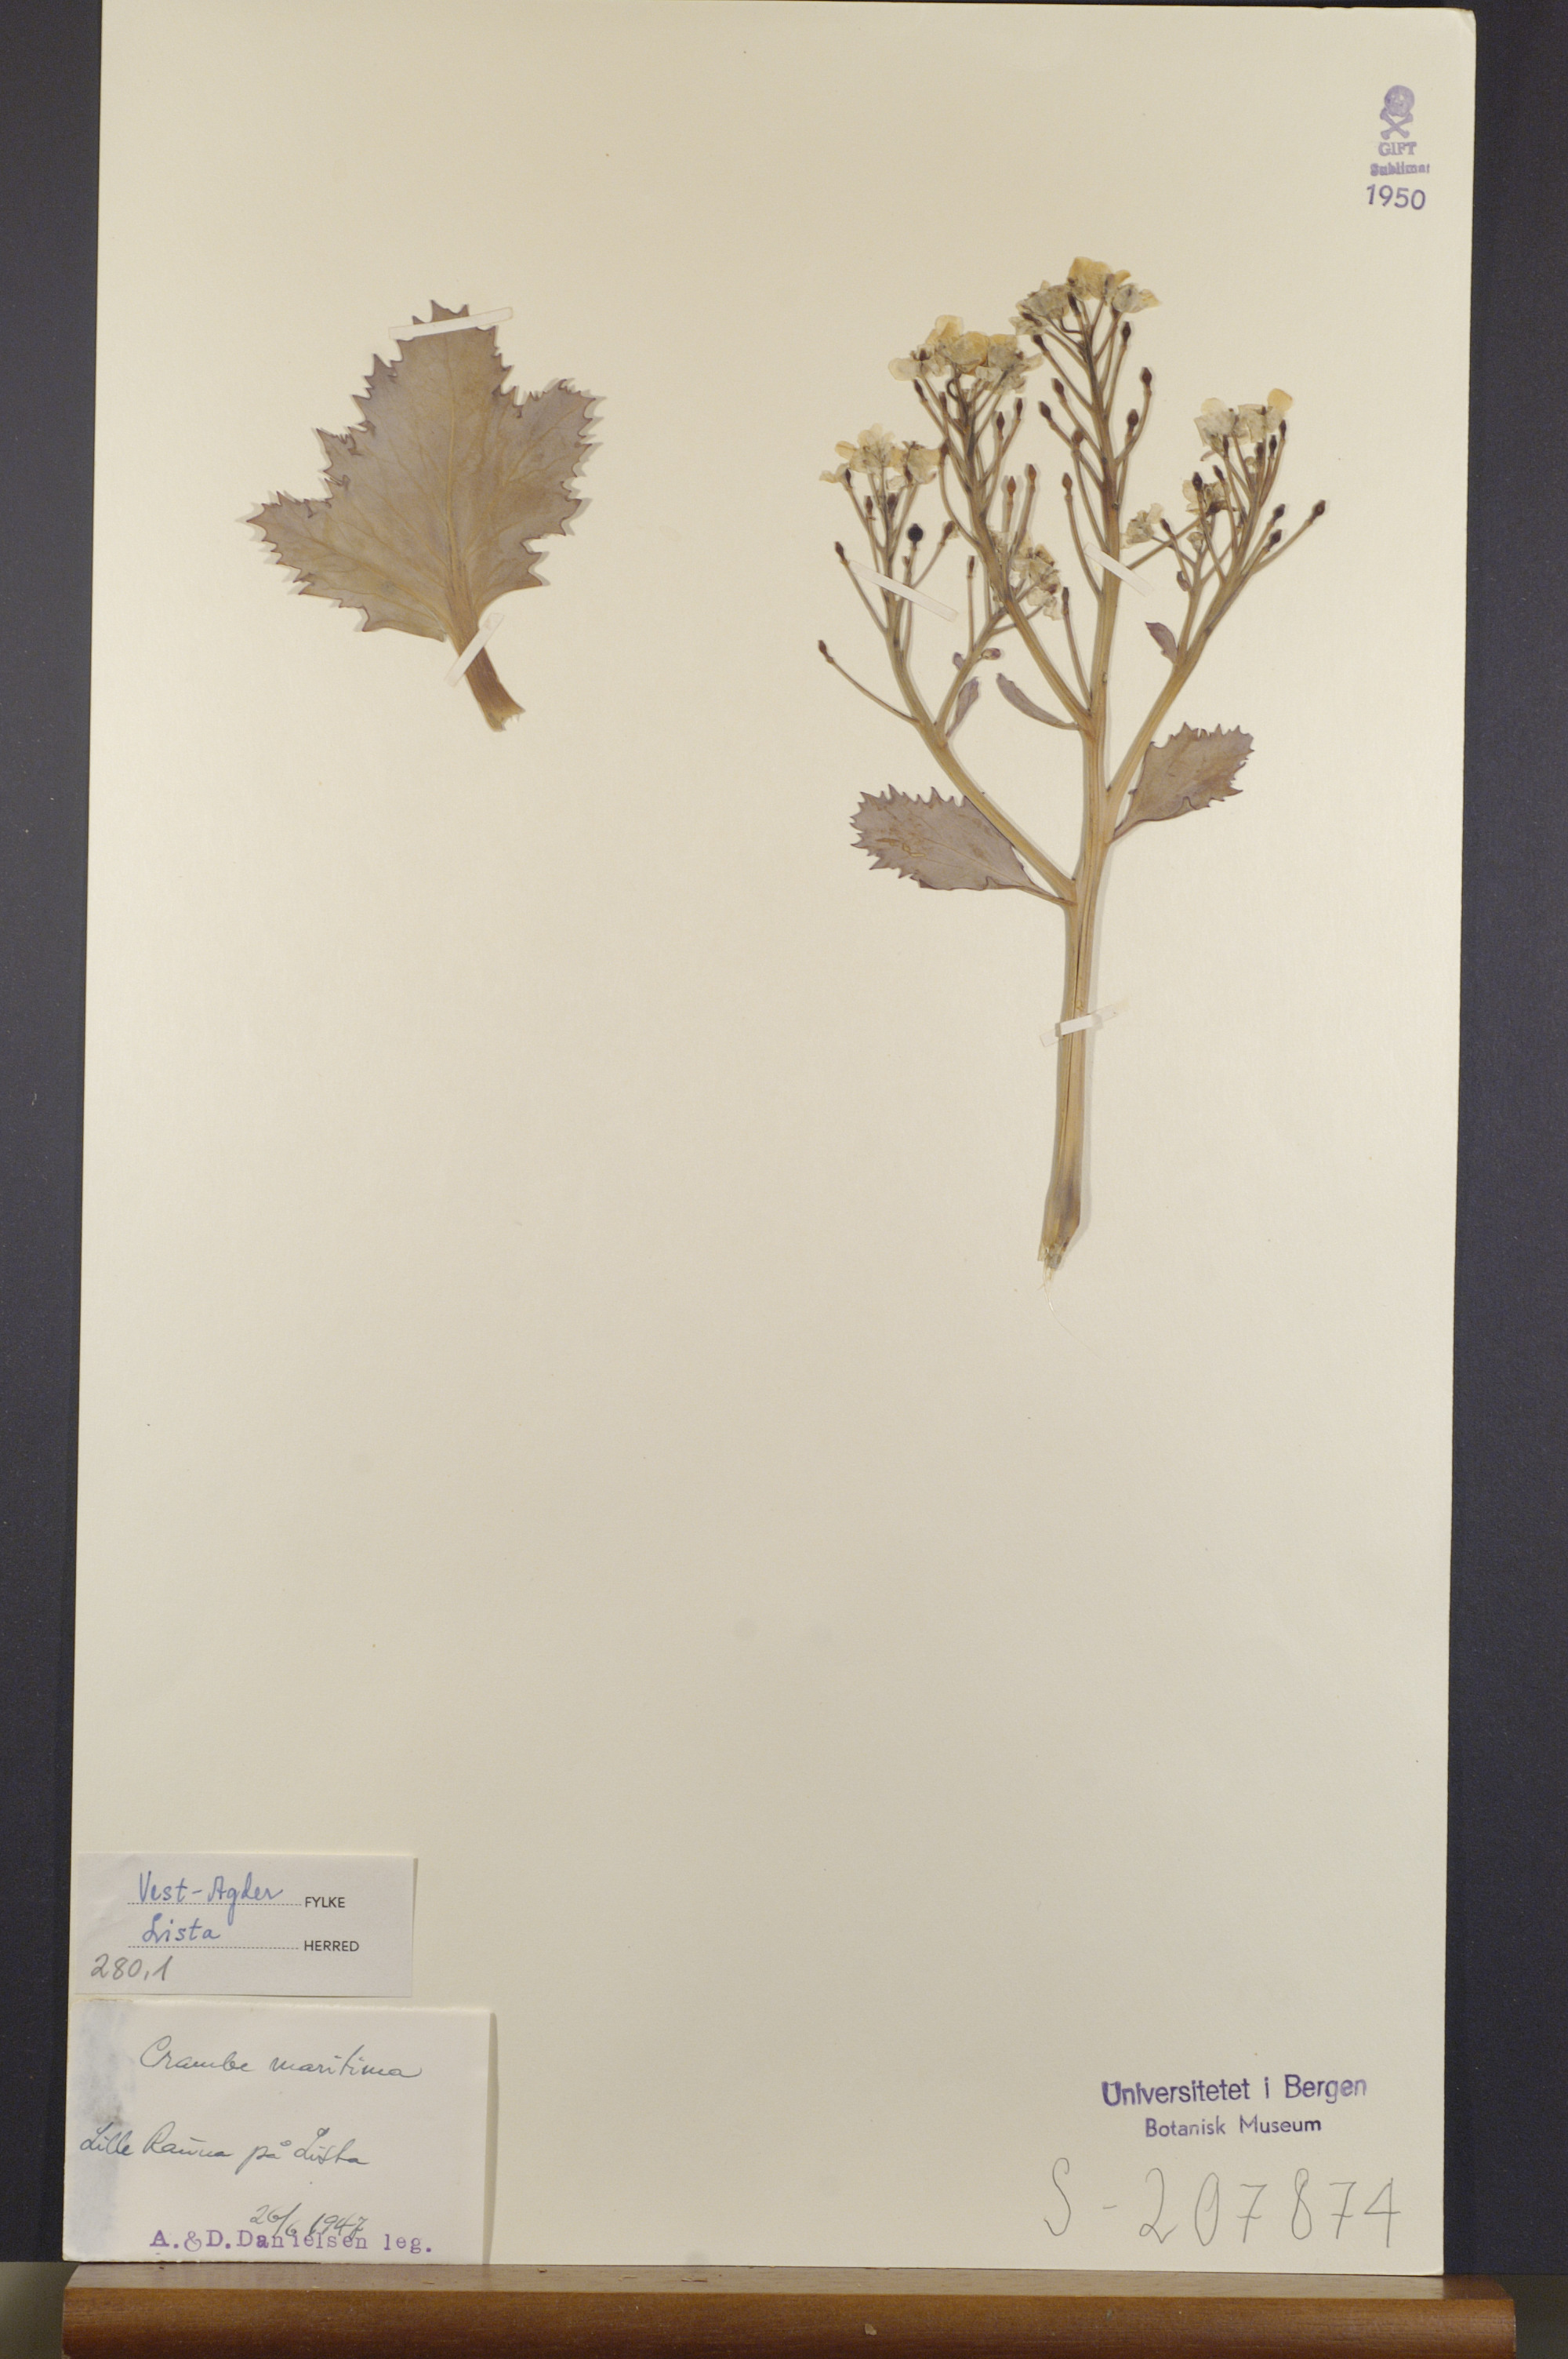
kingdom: Plantae
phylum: Tracheophyta
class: Magnoliopsida
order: Brassicales
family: Brassicaceae
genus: Crambe
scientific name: Crambe maritima
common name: Sea-kale
